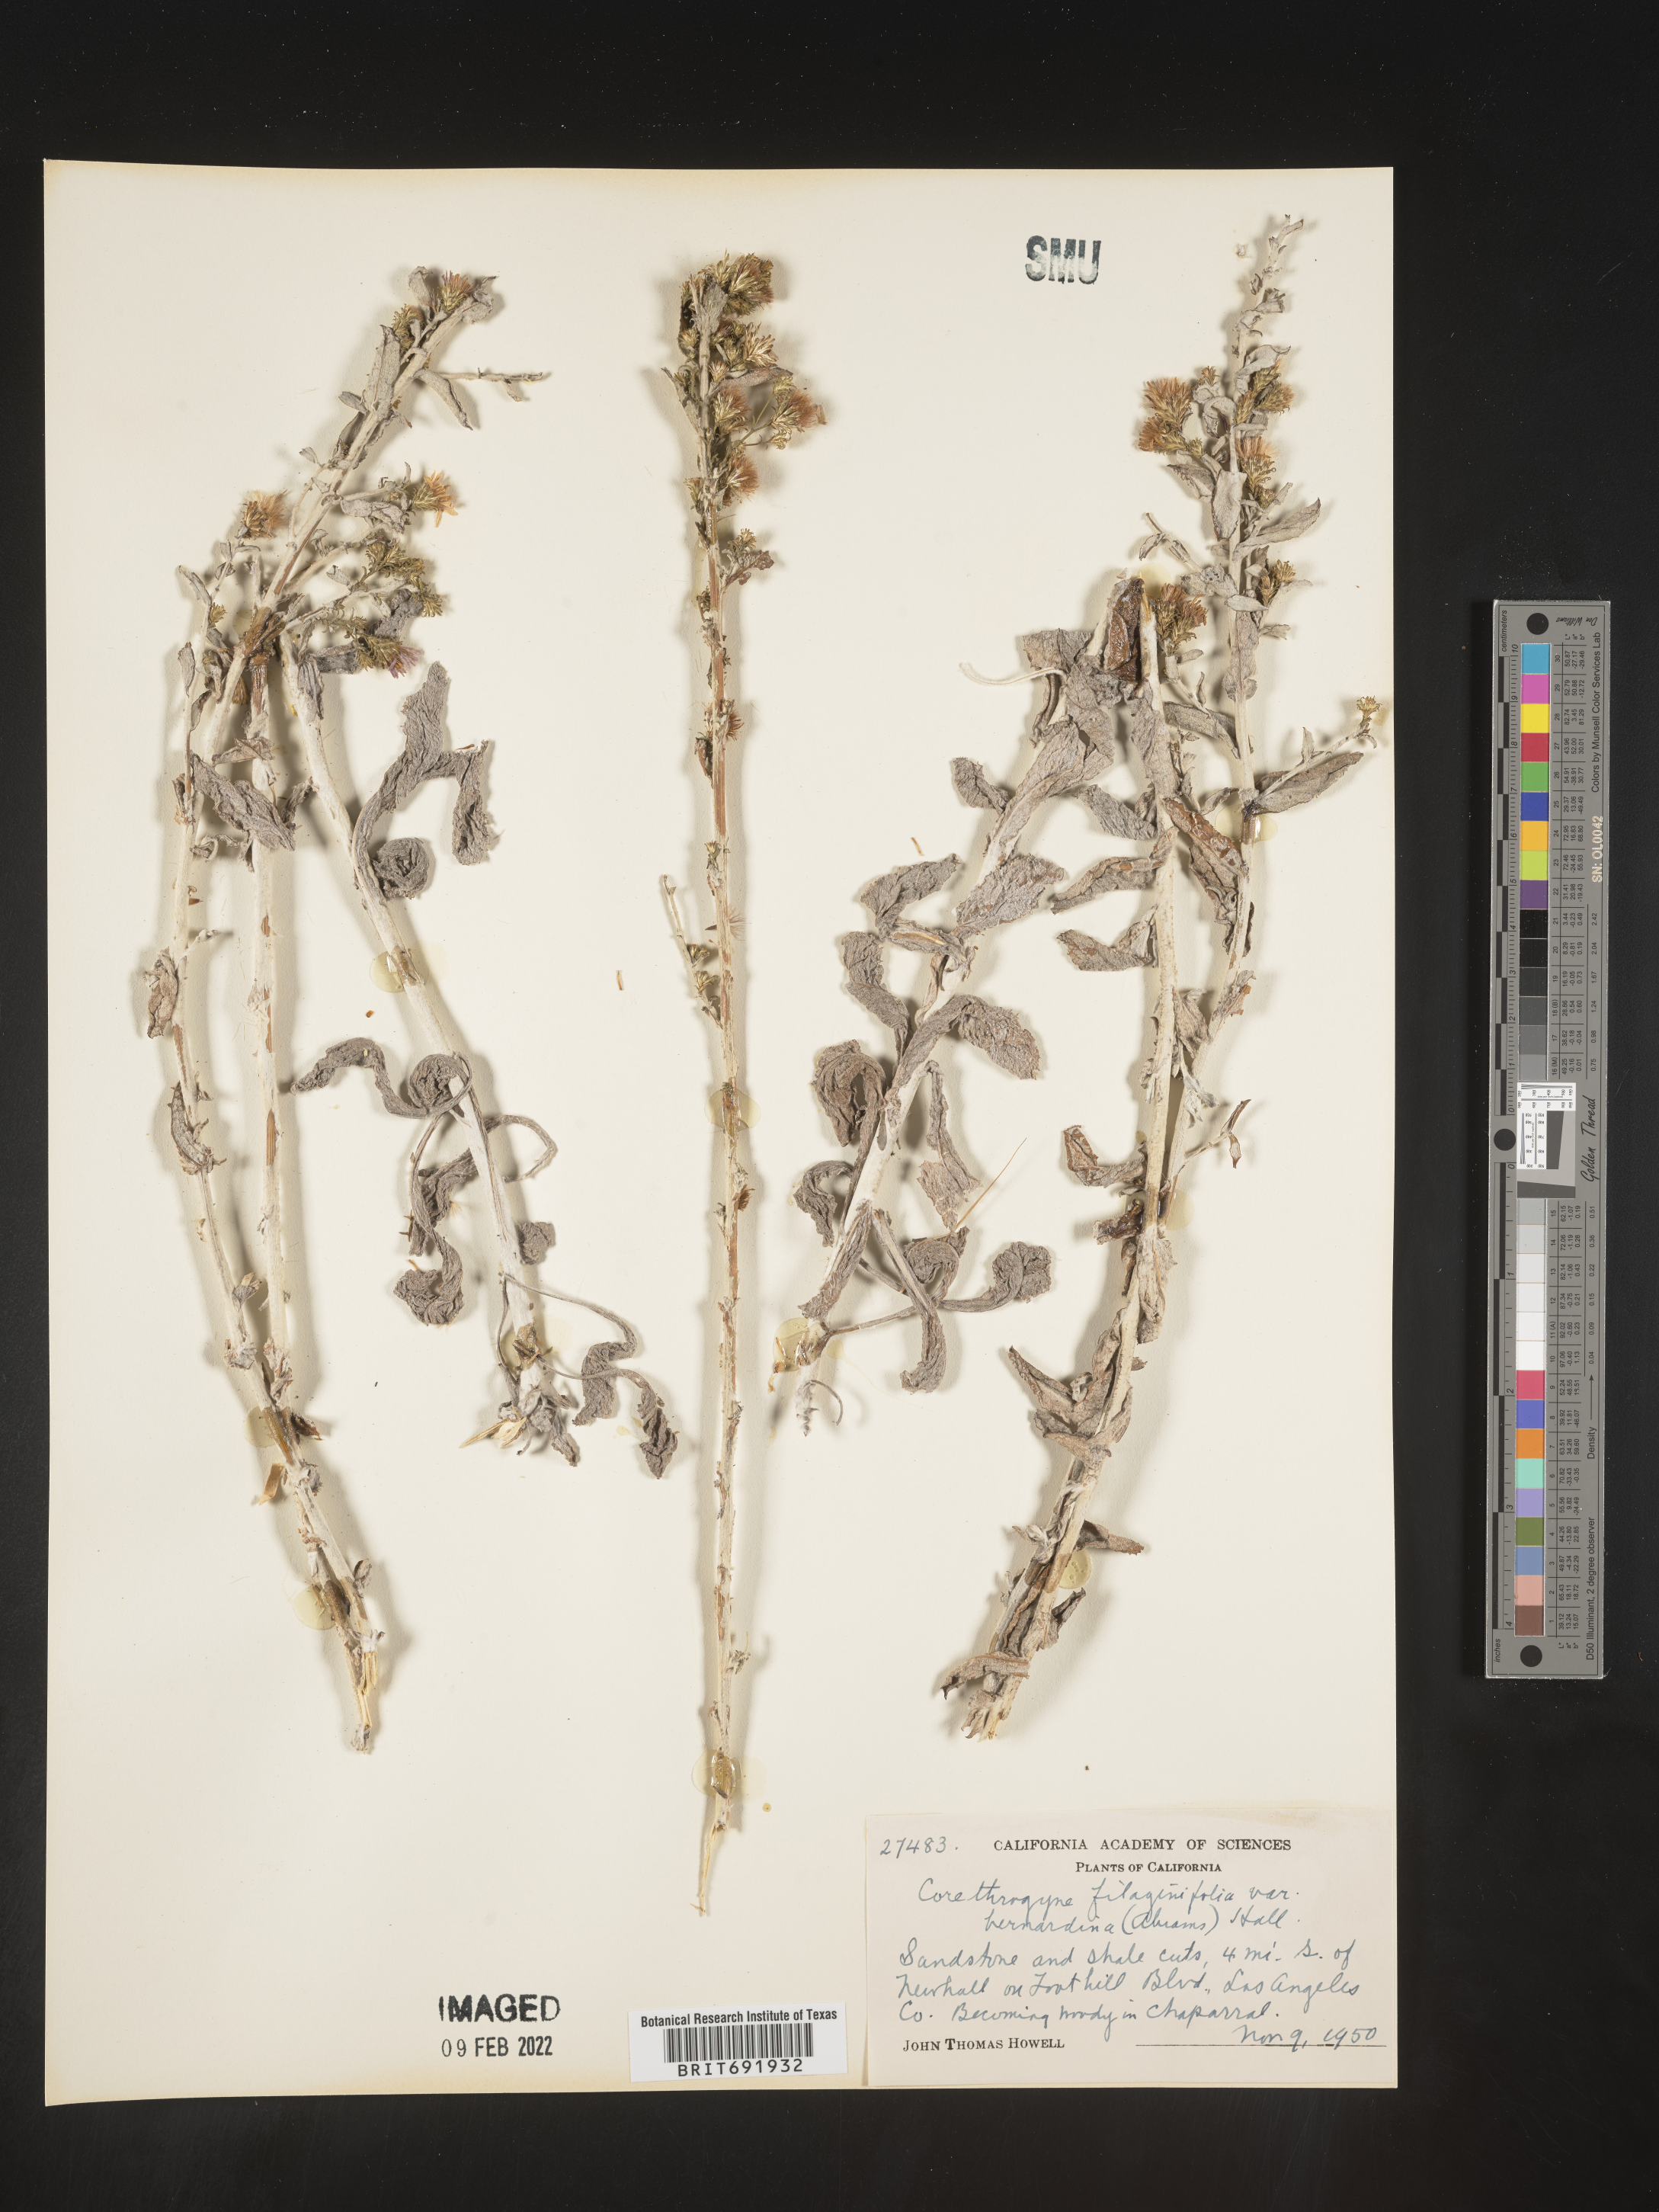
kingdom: Plantae
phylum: Tracheophyta
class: Magnoliopsida
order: Asterales
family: Asteraceae
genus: Corethrogyne
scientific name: Corethrogyne
